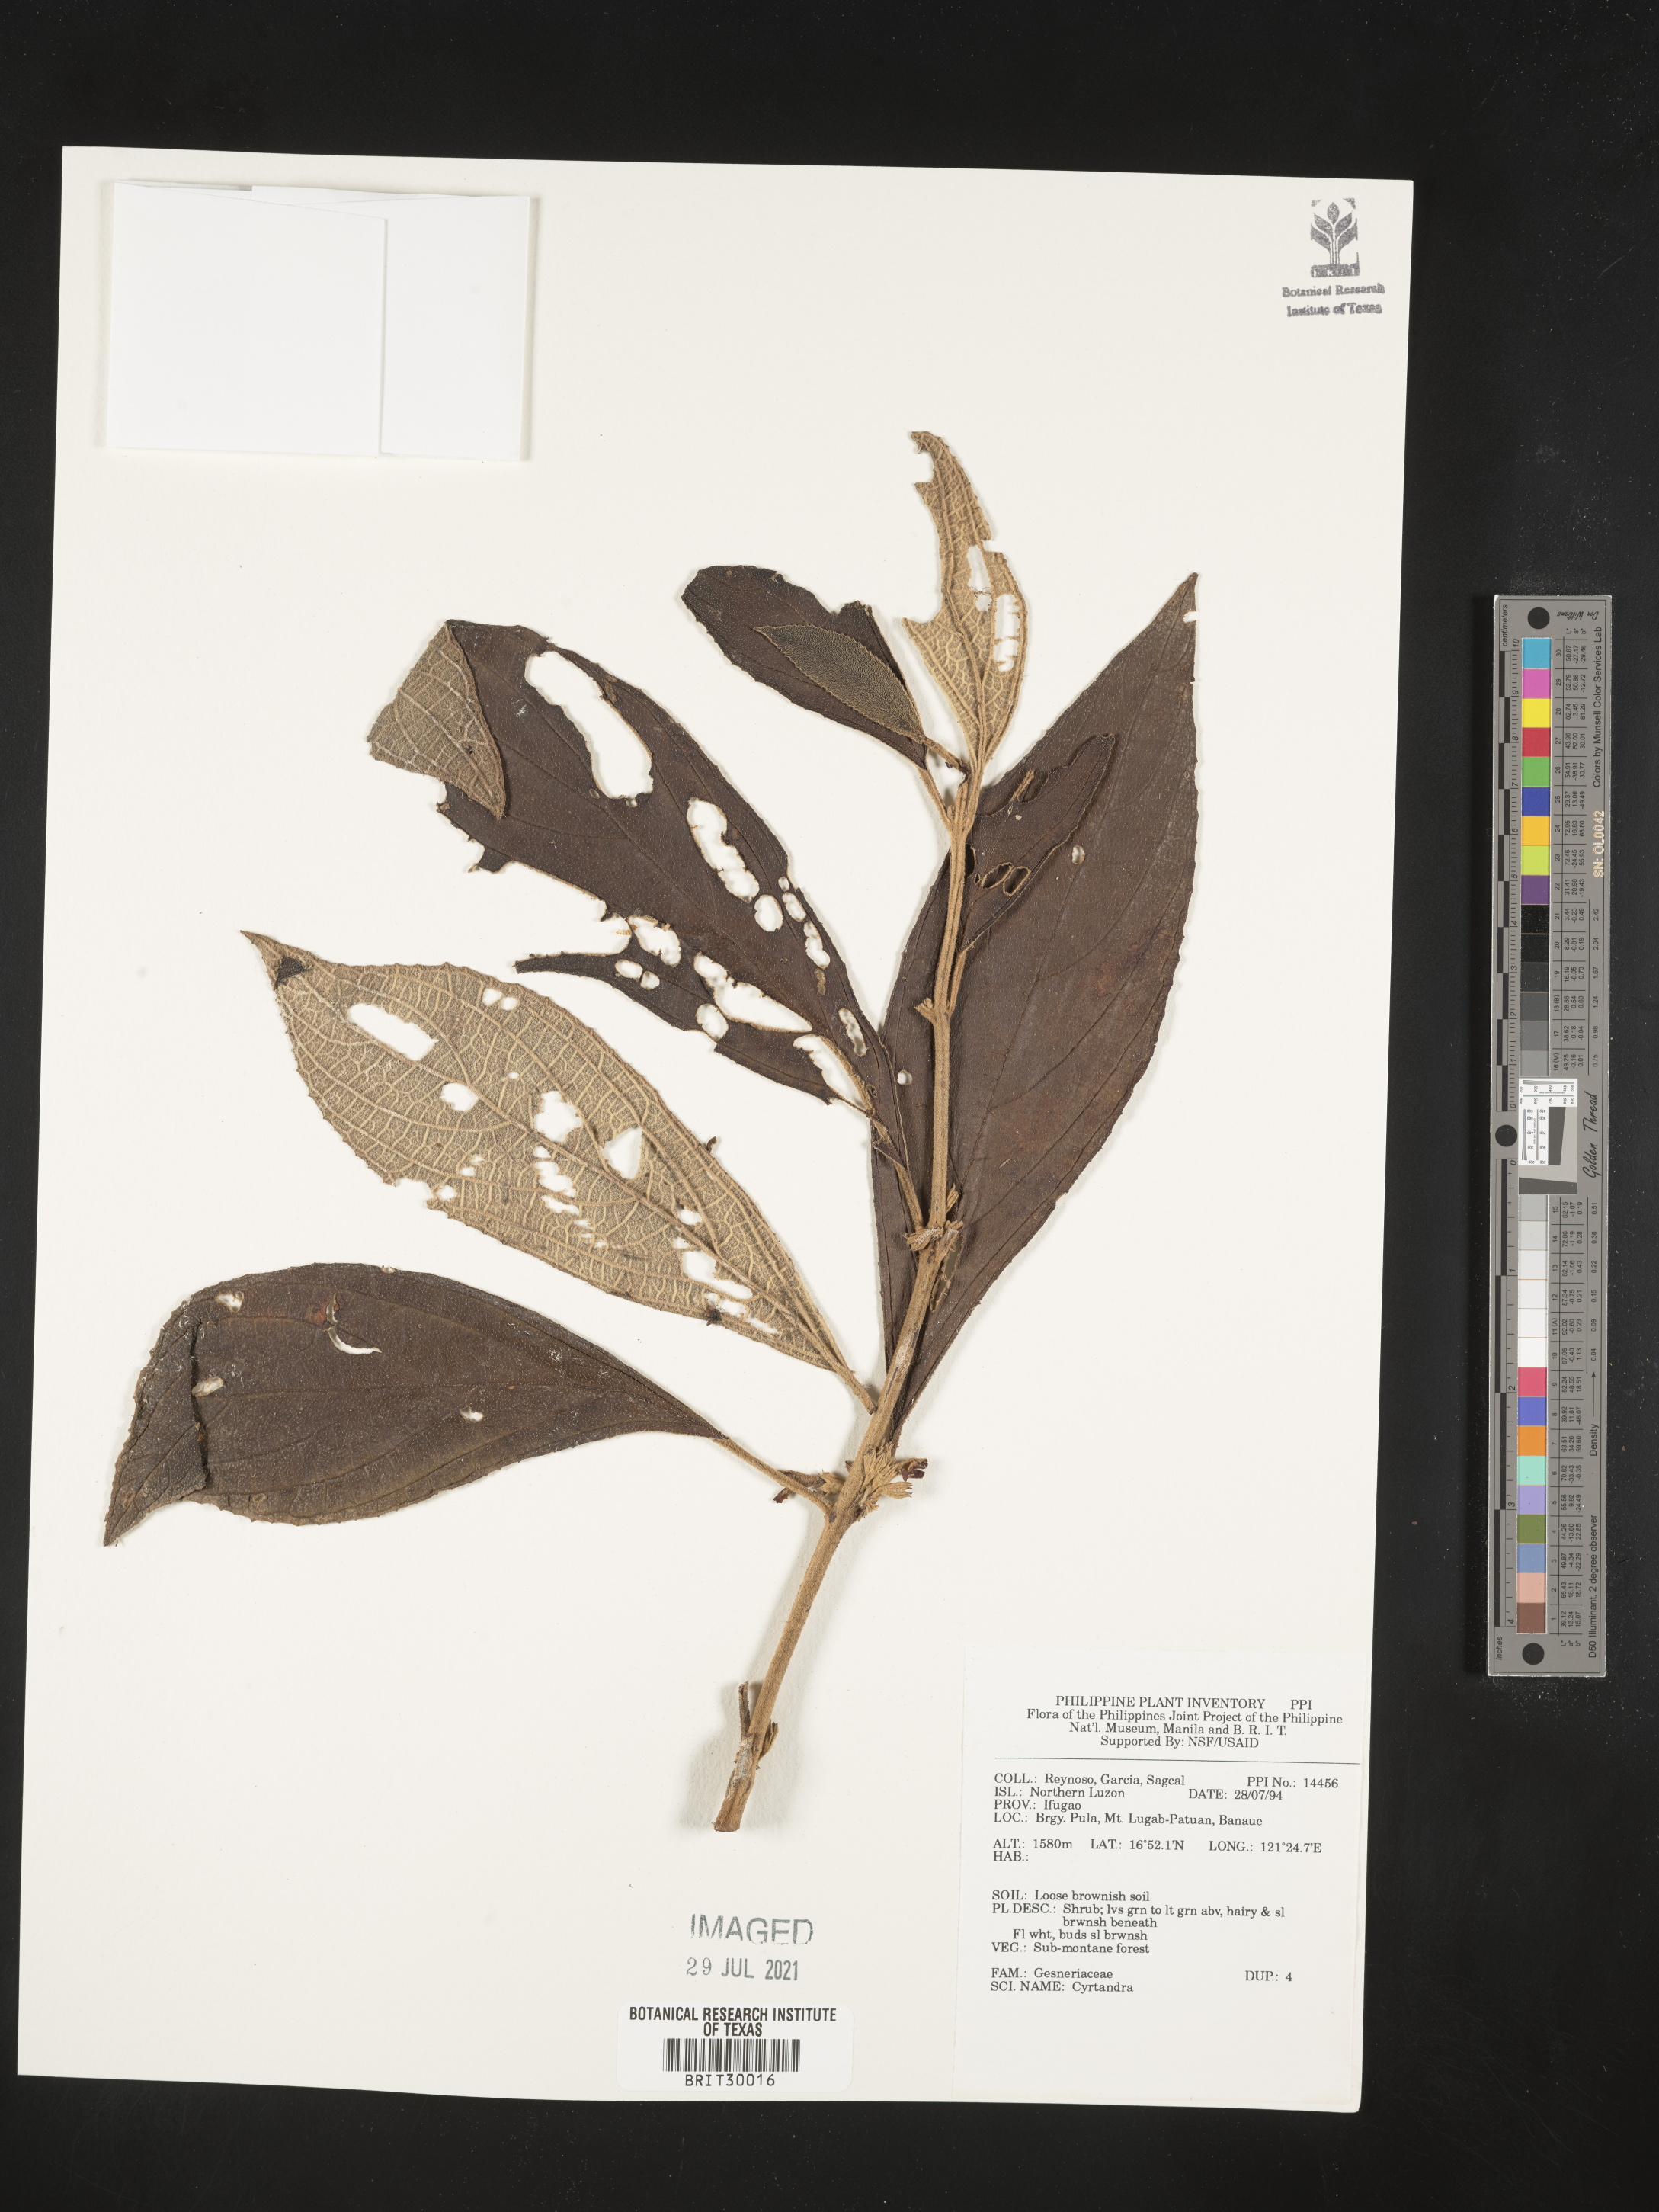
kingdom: Plantae
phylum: Tracheophyta
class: Magnoliopsida
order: Lamiales
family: Gesneriaceae
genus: Cyrtandra
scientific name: Cyrtandra
